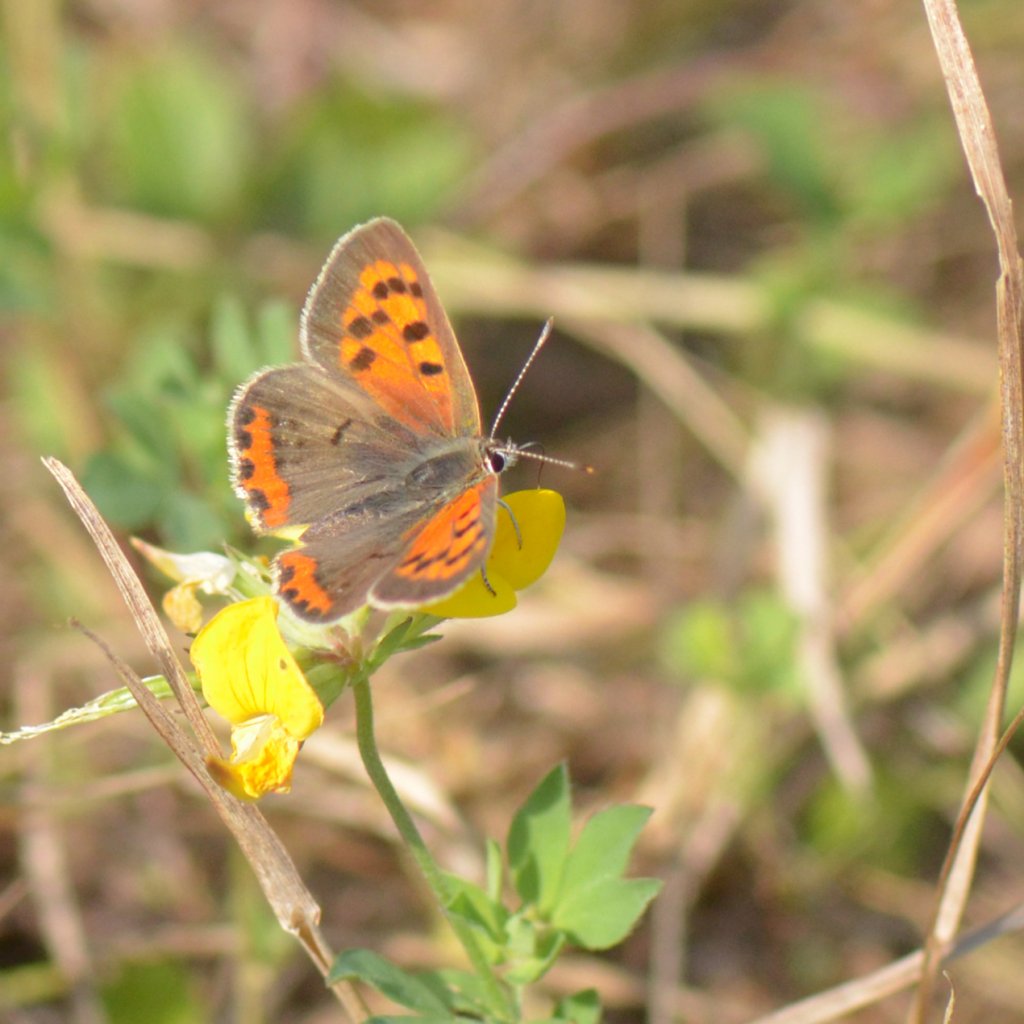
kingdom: Animalia
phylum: Arthropoda
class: Insecta
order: Lepidoptera
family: Lycaenidae
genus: Lycaena
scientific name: Lycaena phlaeas
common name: American Copper
